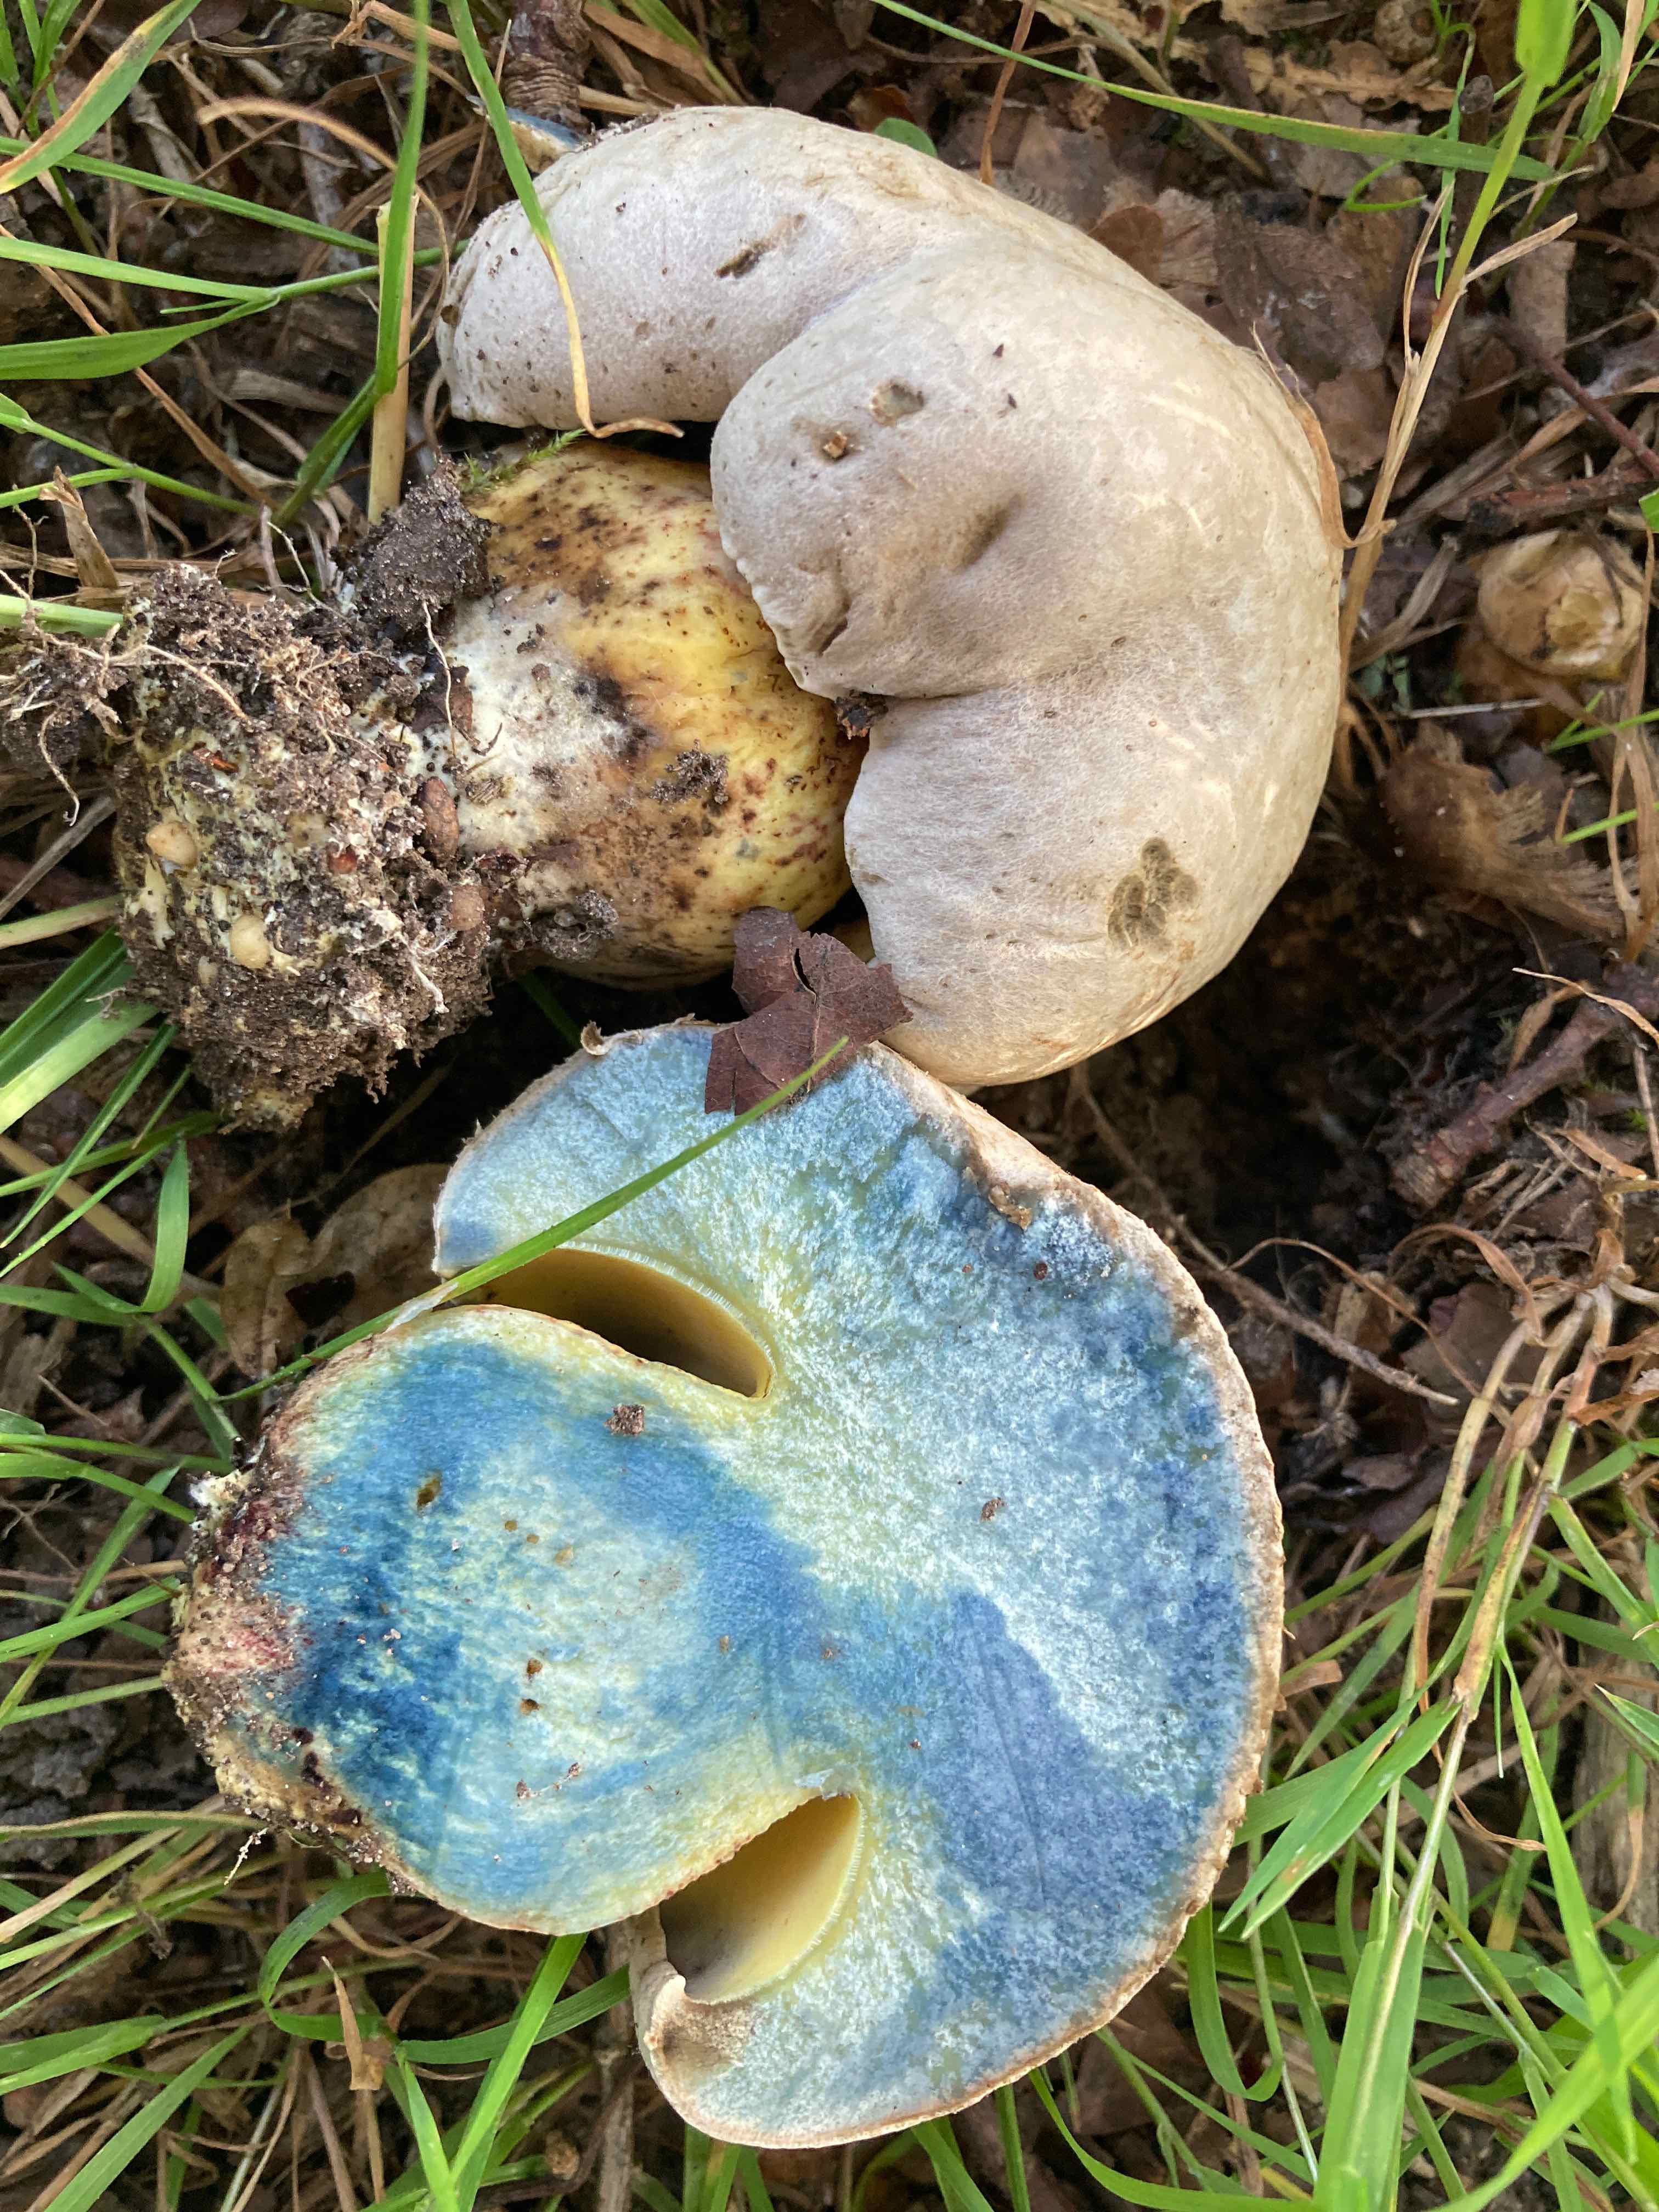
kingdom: Fungi
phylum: Basidiomycota
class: Agaricomycetes
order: Boletales
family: Boletaceae
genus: Caloboletus
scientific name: Caloboletus radicans
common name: rod-rørhat
